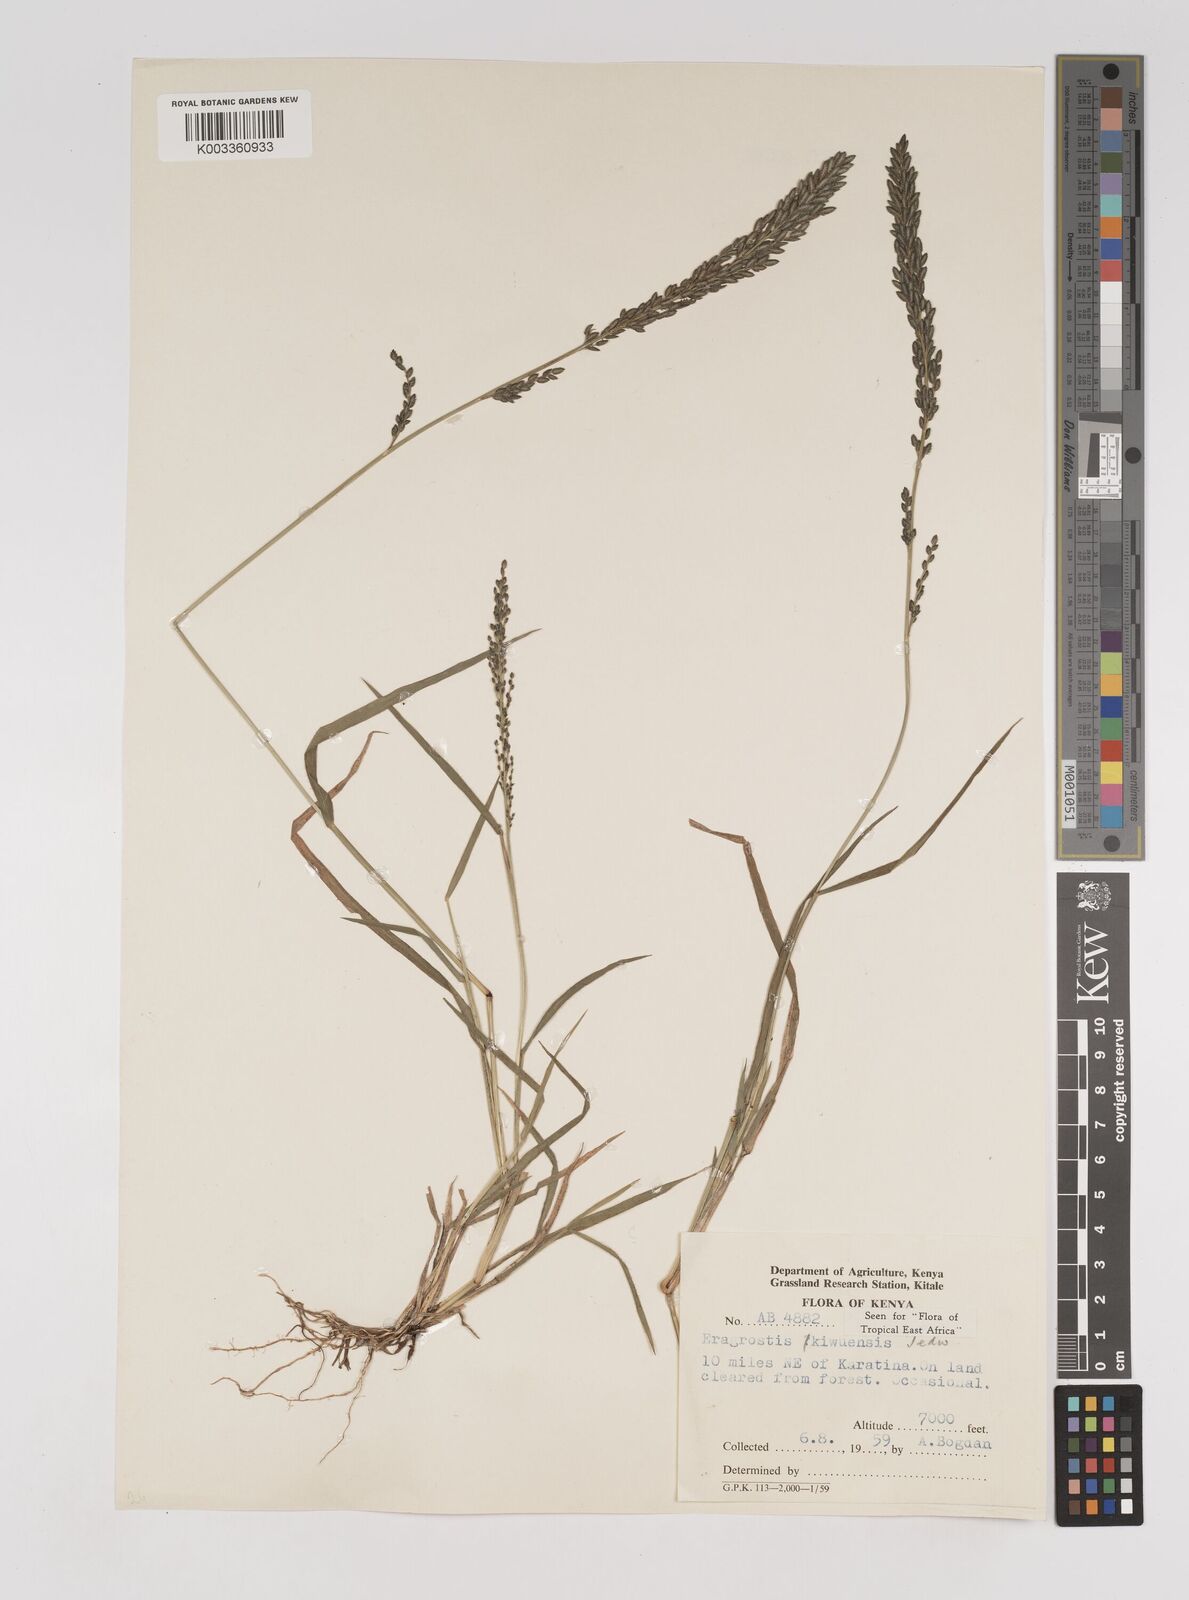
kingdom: Plantae
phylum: Tracheophyta
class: Liliopsida
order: Poales
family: Poaceae
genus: Eragrostis
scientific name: Eragrostis schweinfurthii
